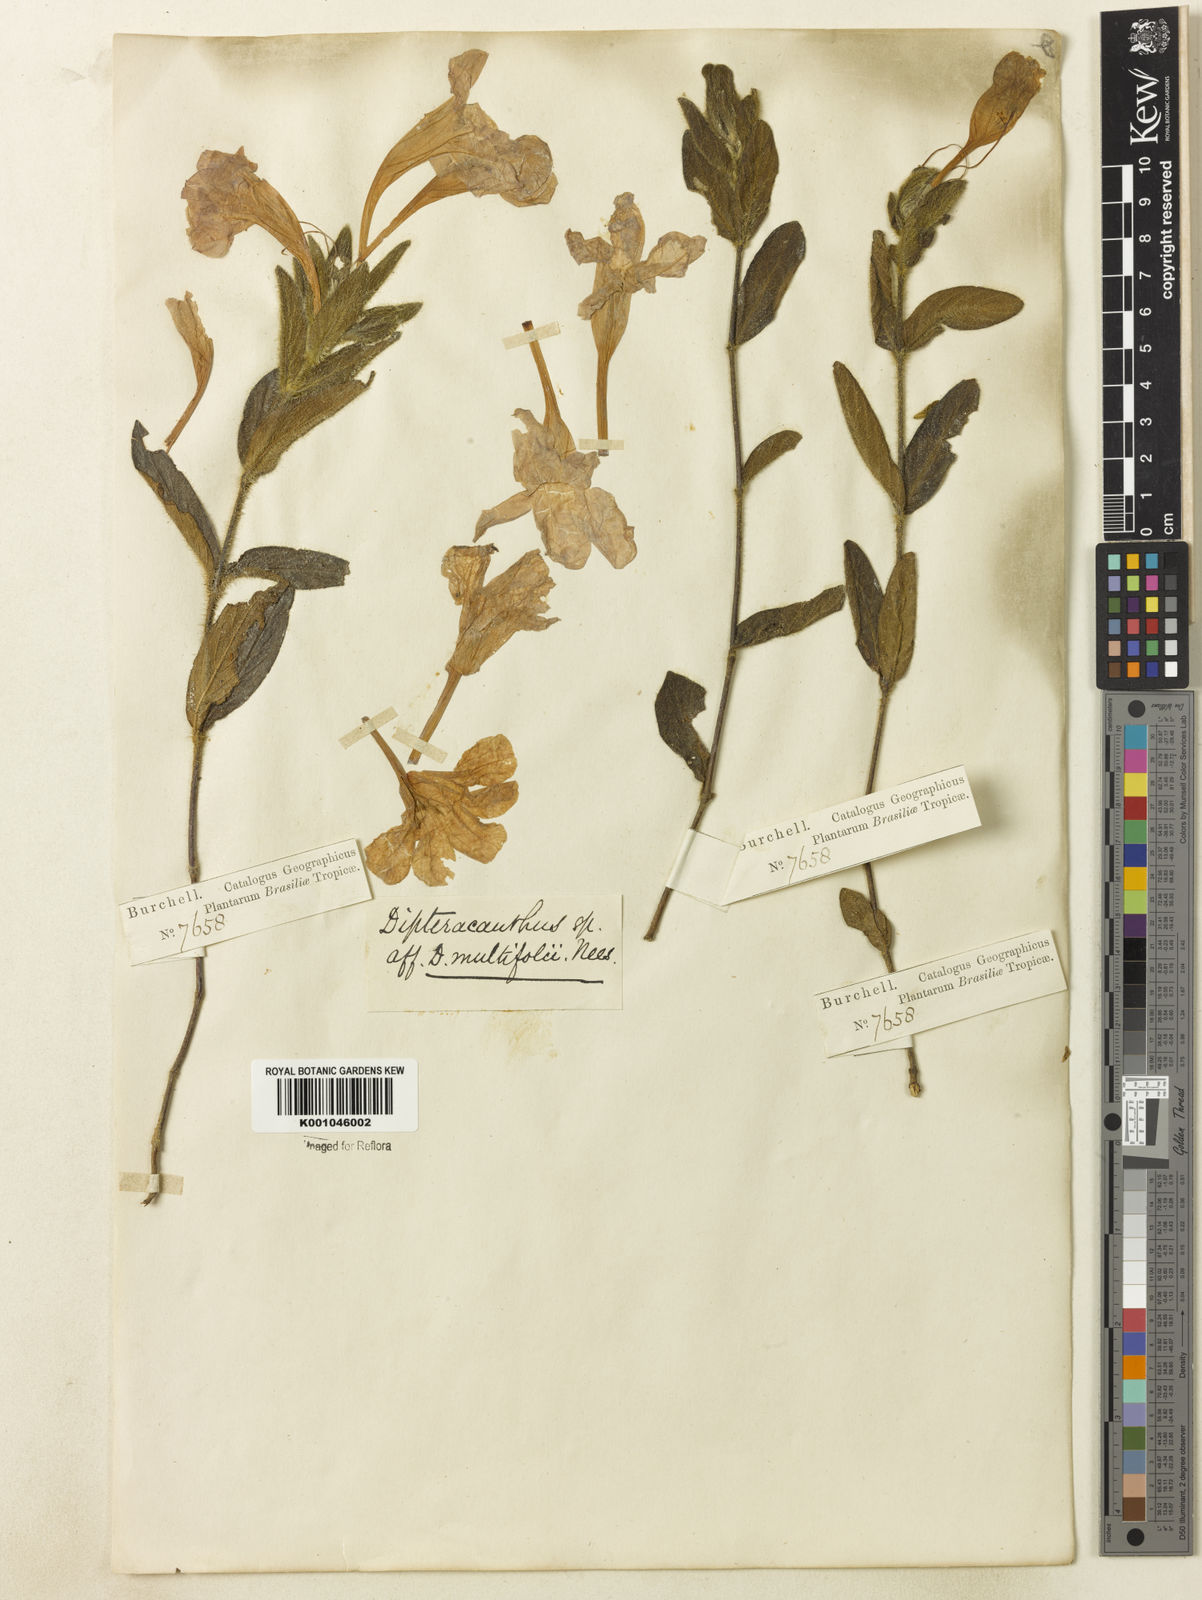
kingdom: Plantae
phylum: Tracheophyta
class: Magnoliopsida
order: Lamiales
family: Acanthaceae
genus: Ruellia
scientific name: Ruellia hapalotricha
